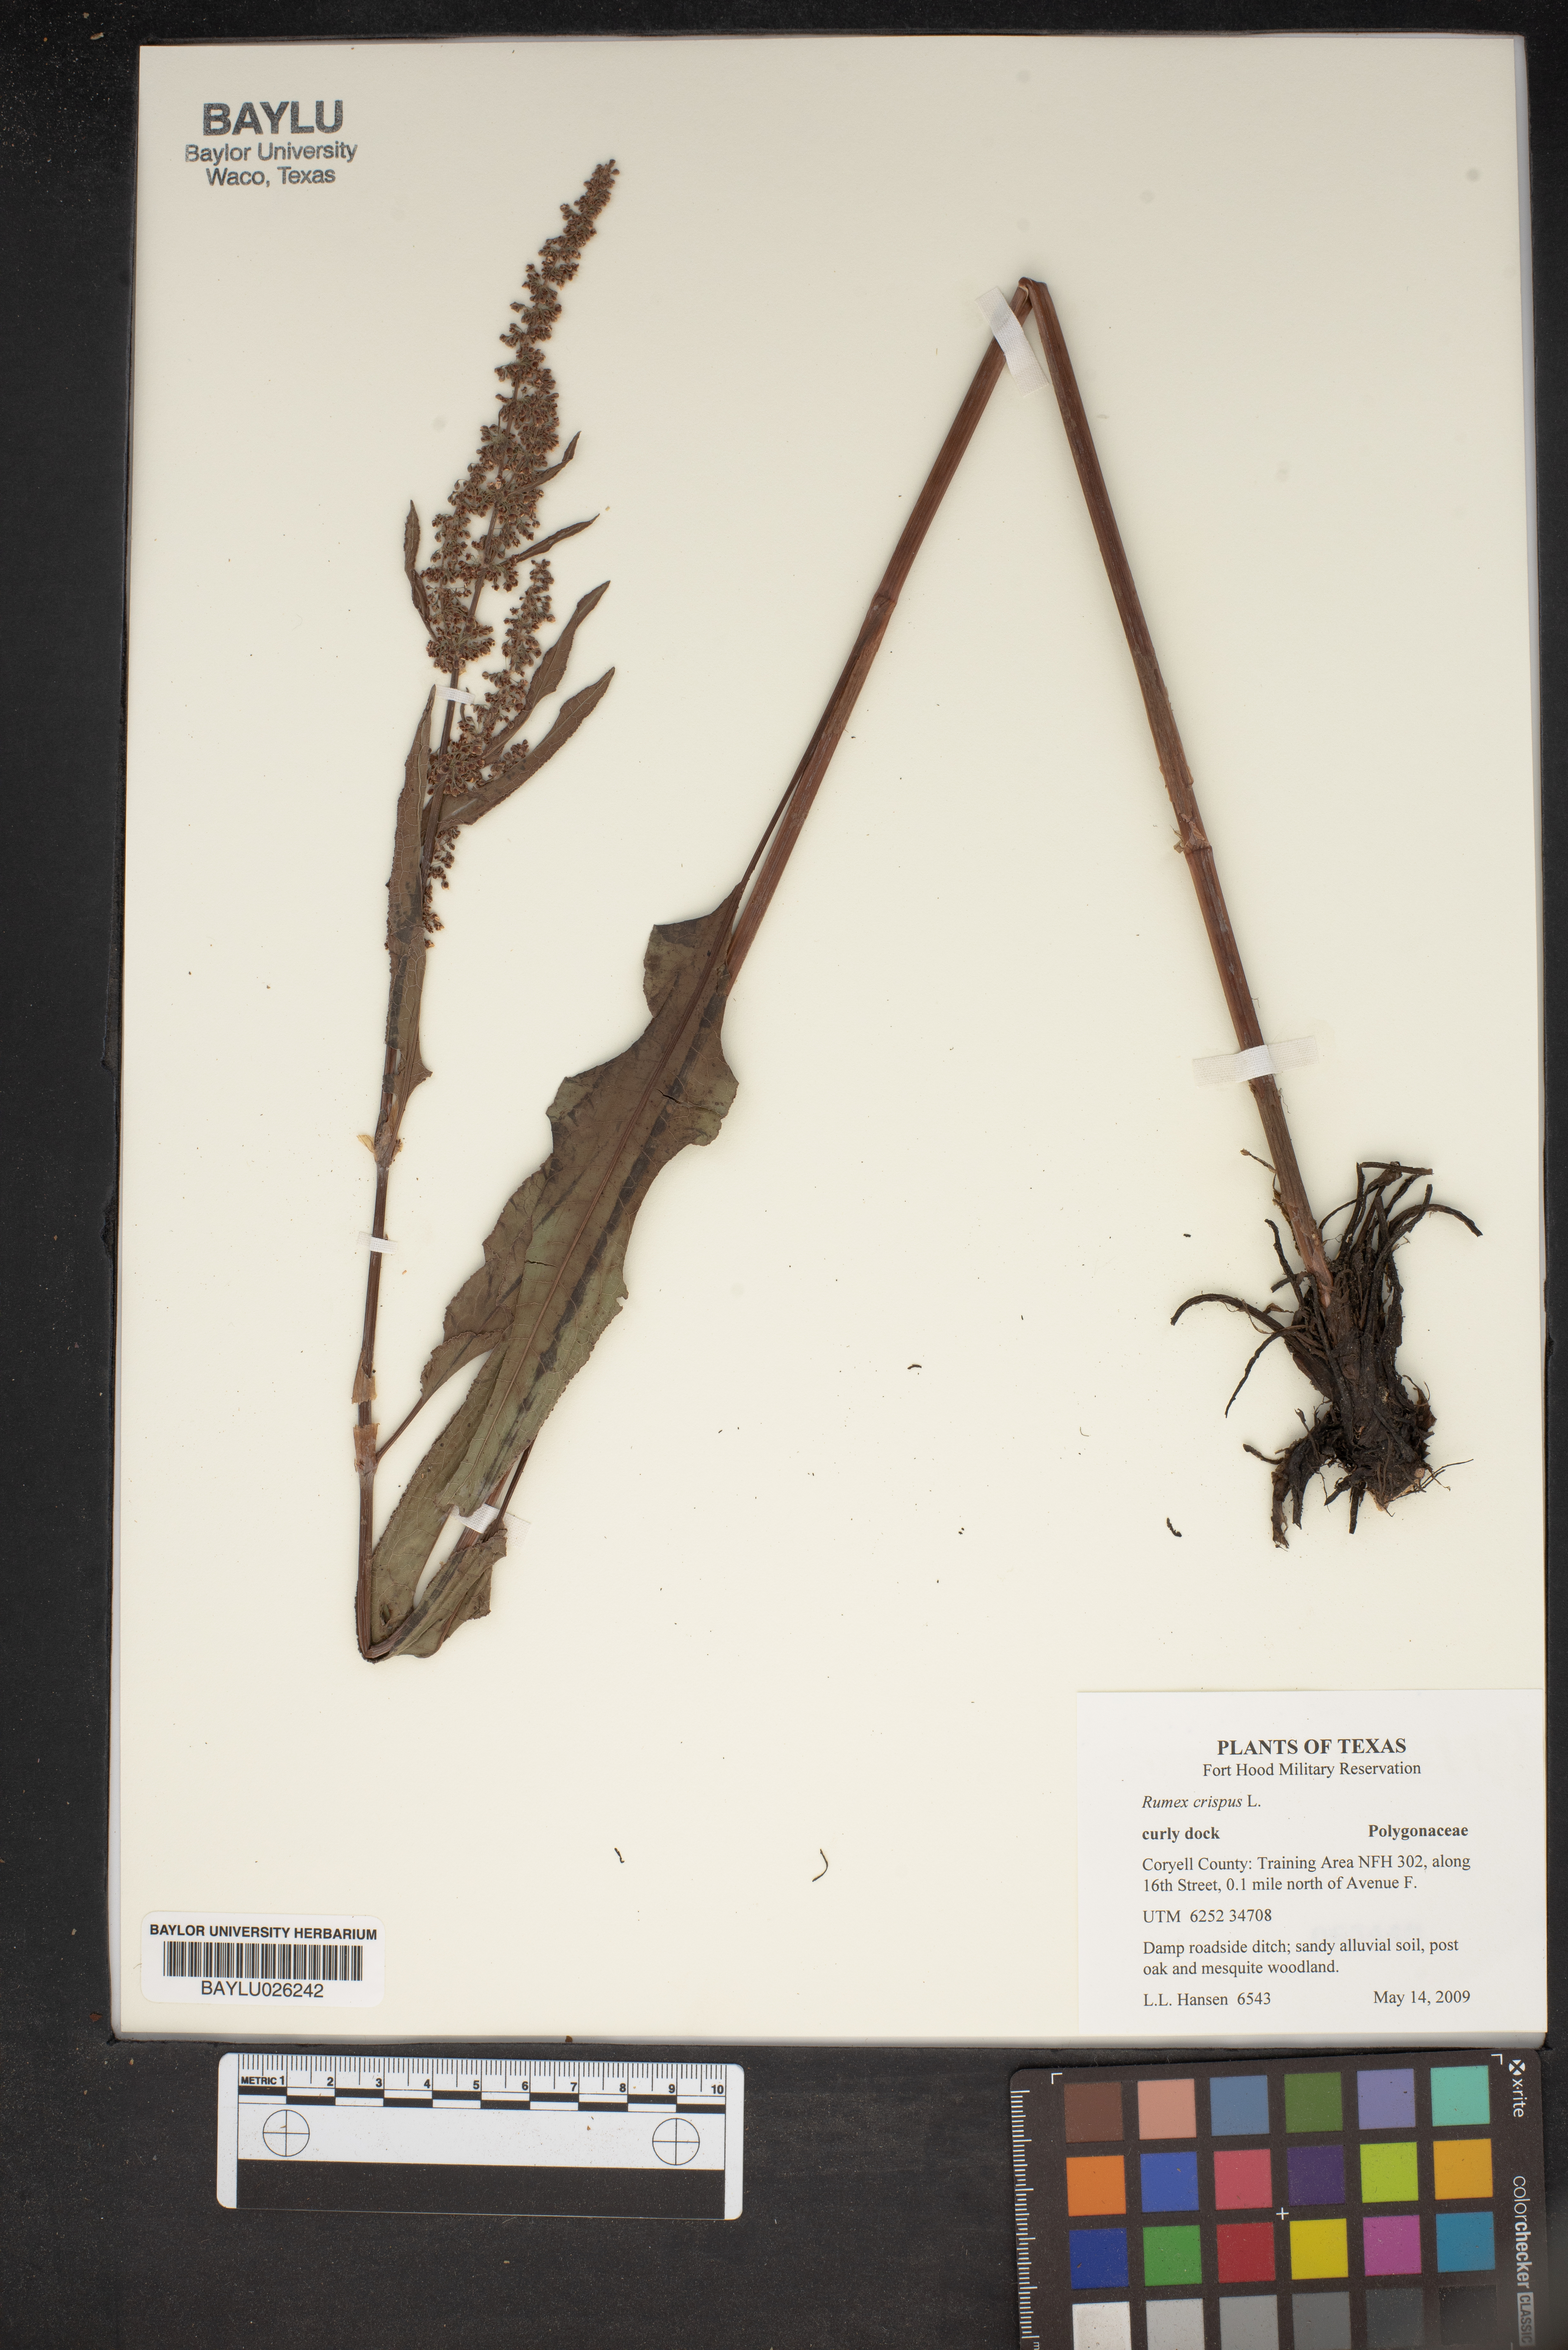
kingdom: Plantae
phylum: Tracheophyta
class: Magnoliopsida
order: Caryophyllales
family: Polygonaceae
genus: Rumex
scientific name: Rumex crispus
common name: Curled dock
